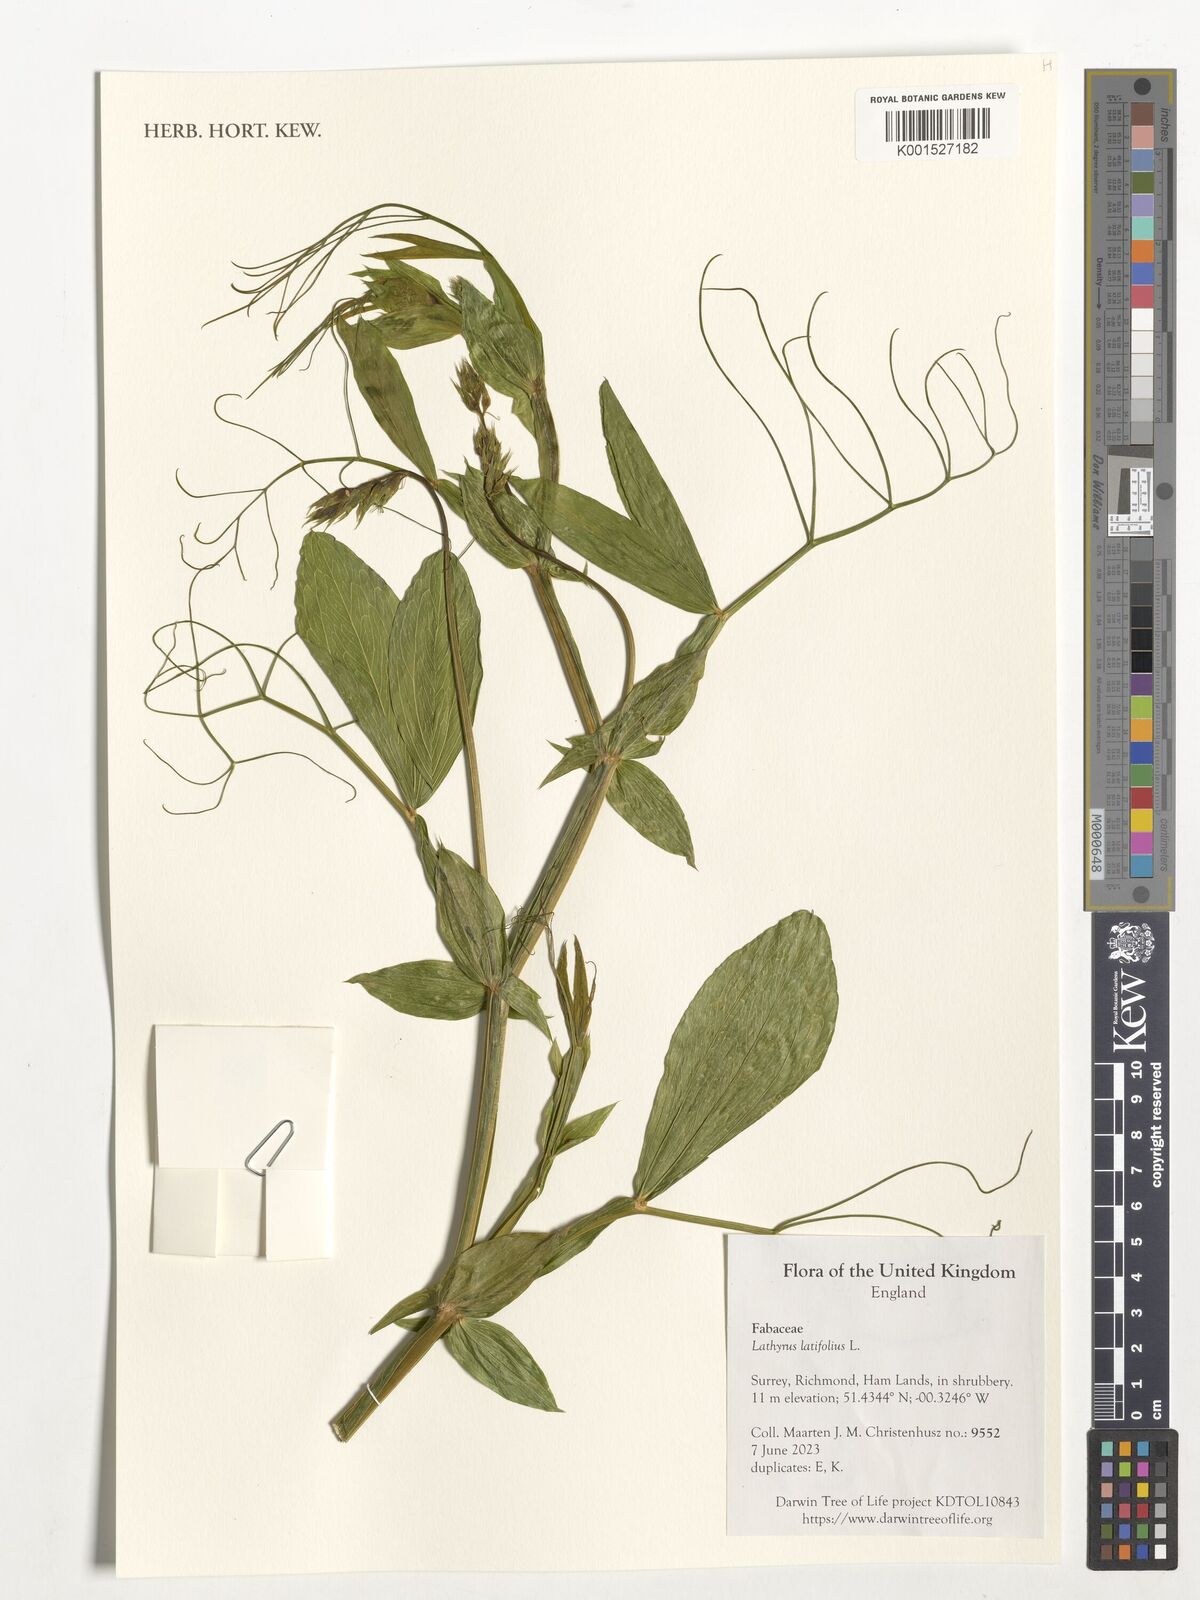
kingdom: Plantae
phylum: Tracheophyta
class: Magnoliopsida
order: Fabales
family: Fabaceae
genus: Lathyrus
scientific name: Lathyrus latifolius
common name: Perennial pea
